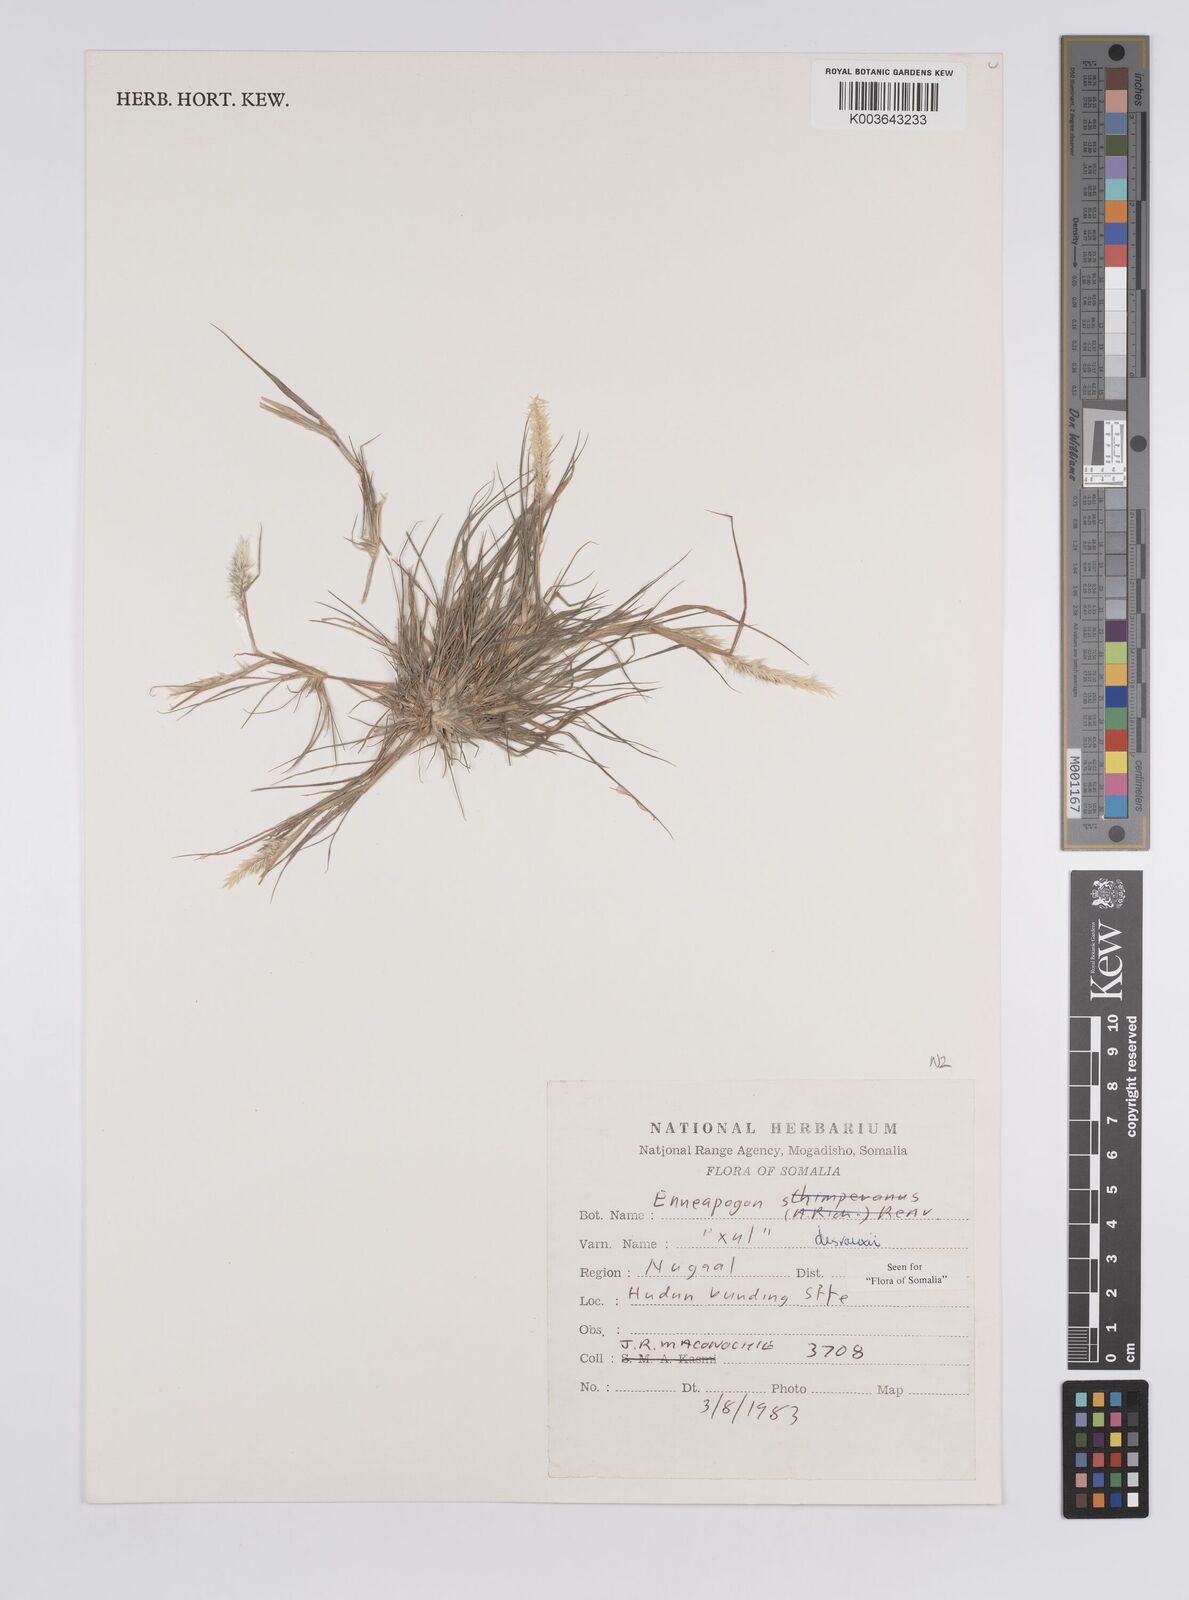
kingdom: Plantae
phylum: Tracheophyta
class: Liliopsida
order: Poales
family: Poaceae
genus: Enneapogon
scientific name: Enneapogon desvauxii
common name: Feather pappus grass
